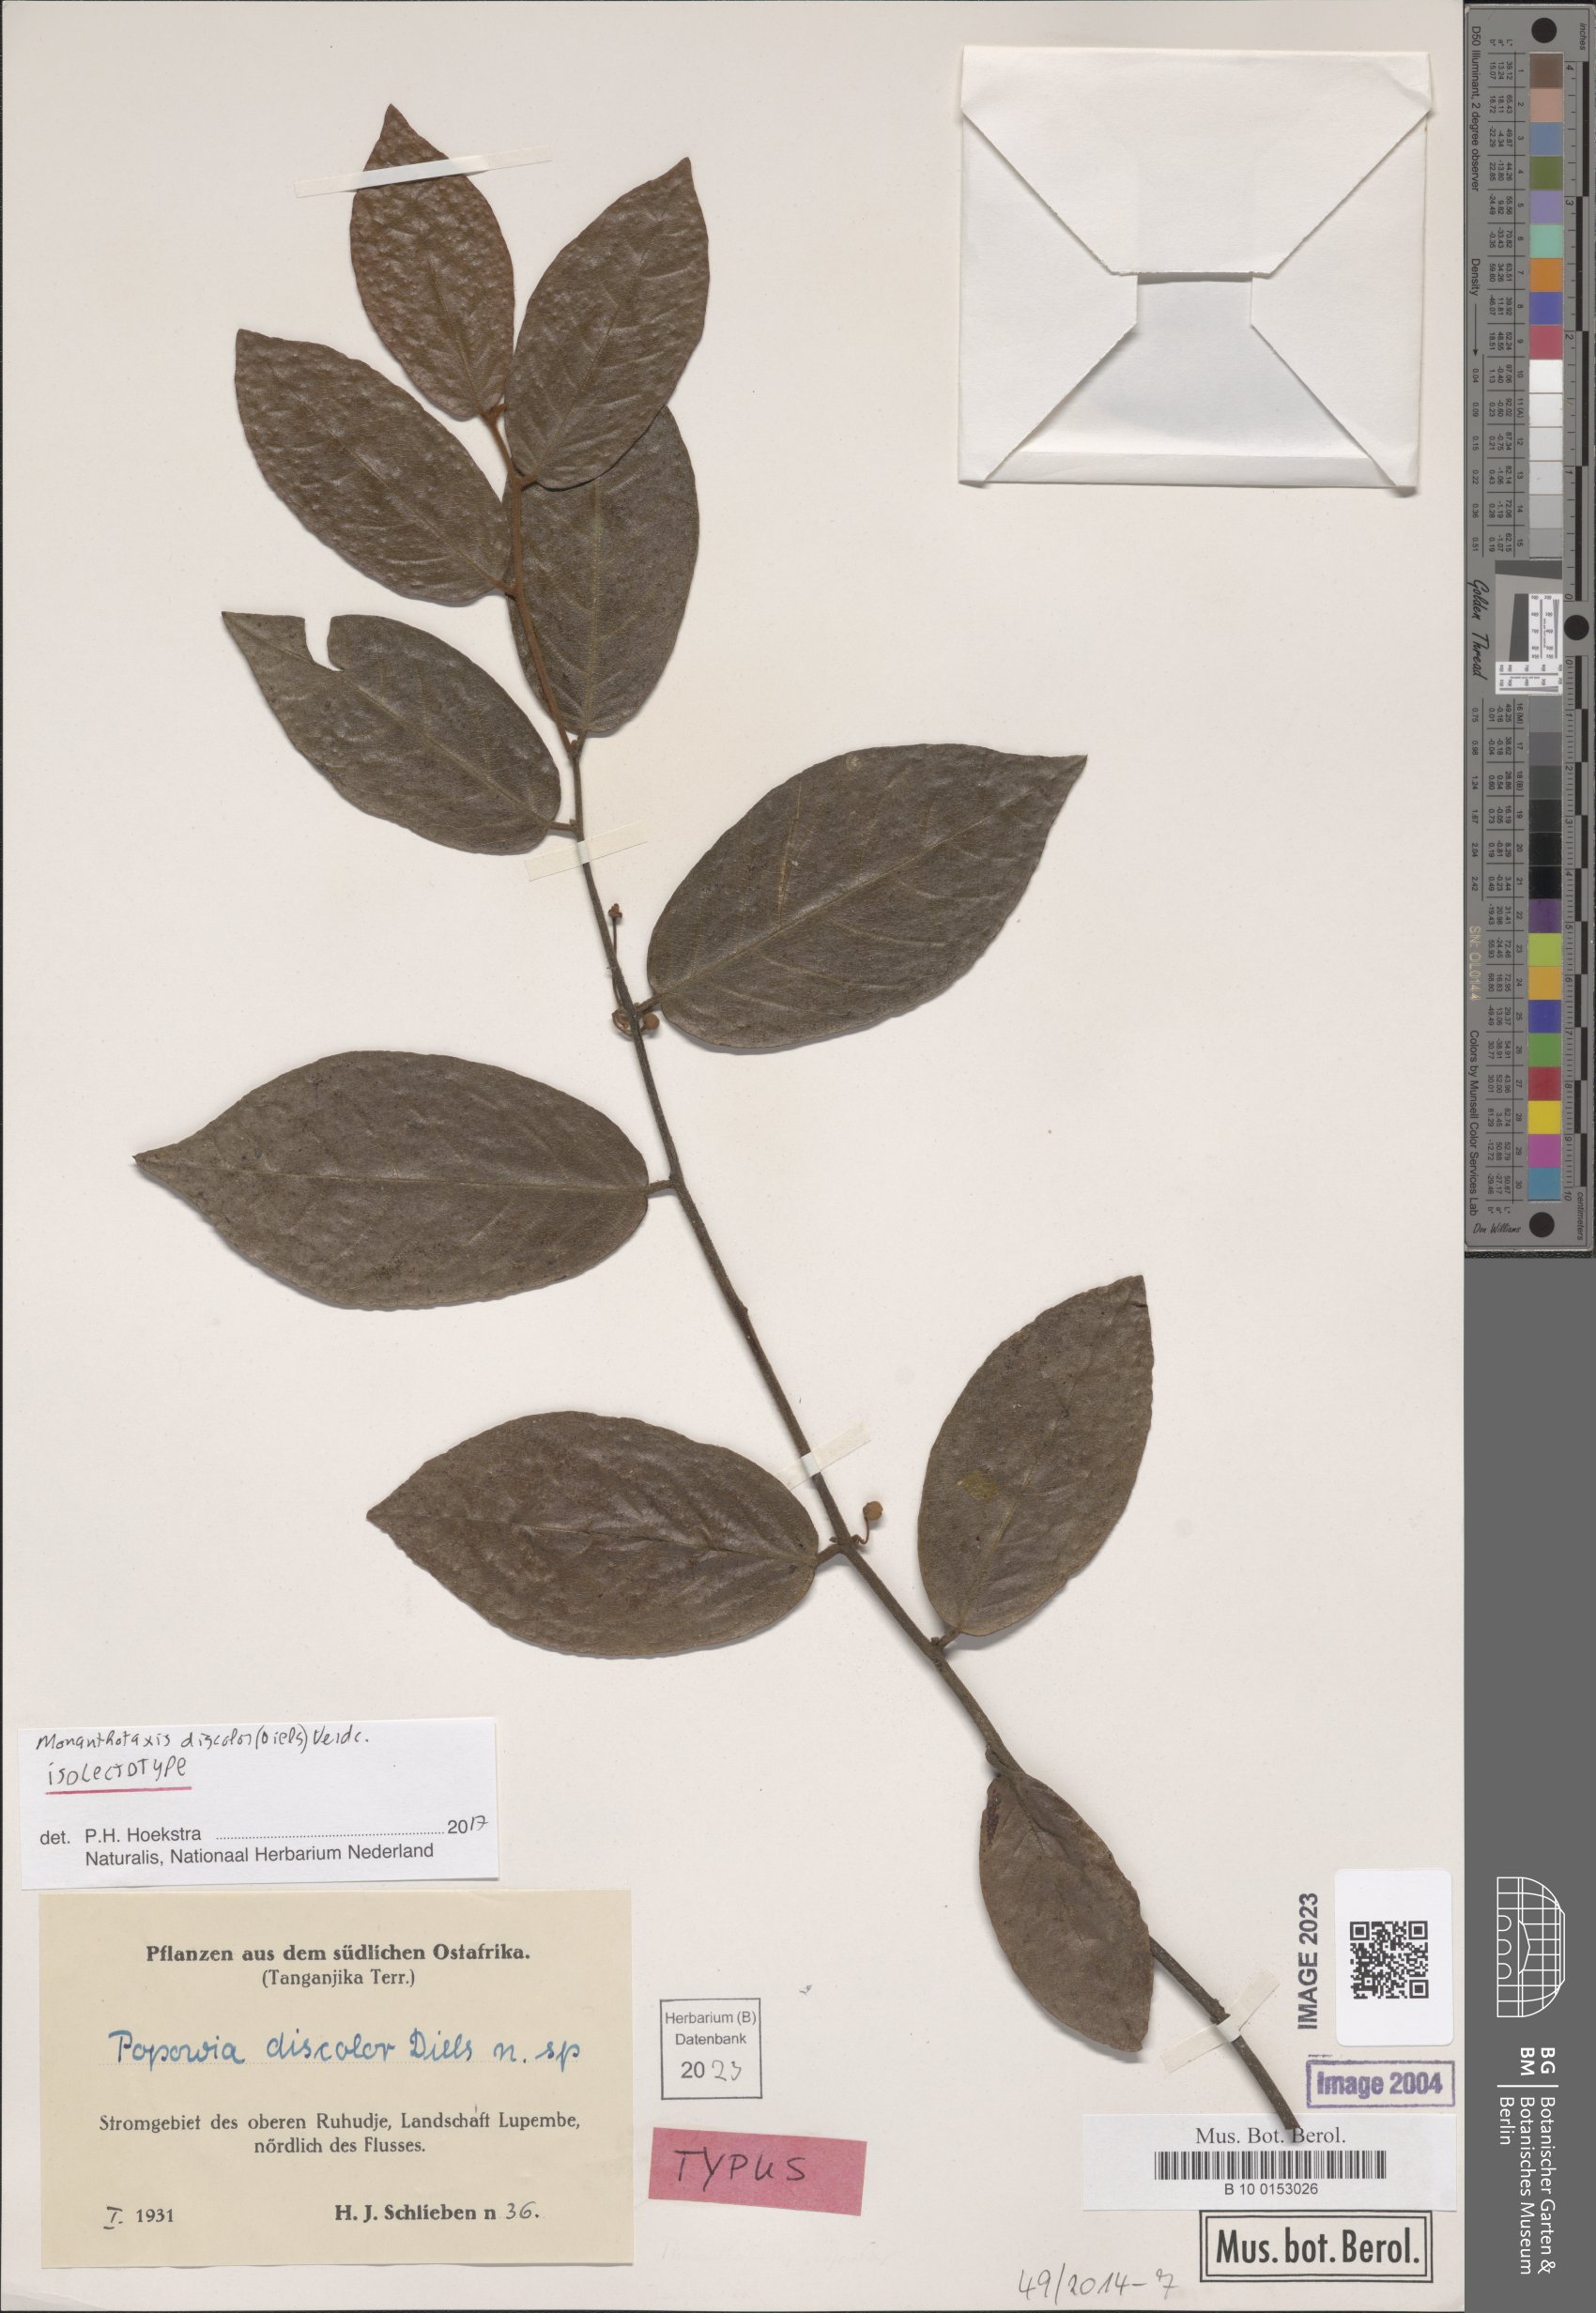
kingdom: Plantae
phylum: Tracheophyta
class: Magnoliopsida
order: Magnoliales
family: Annonaceae
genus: Monanthotaxis
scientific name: Monanthotaxis discolor
